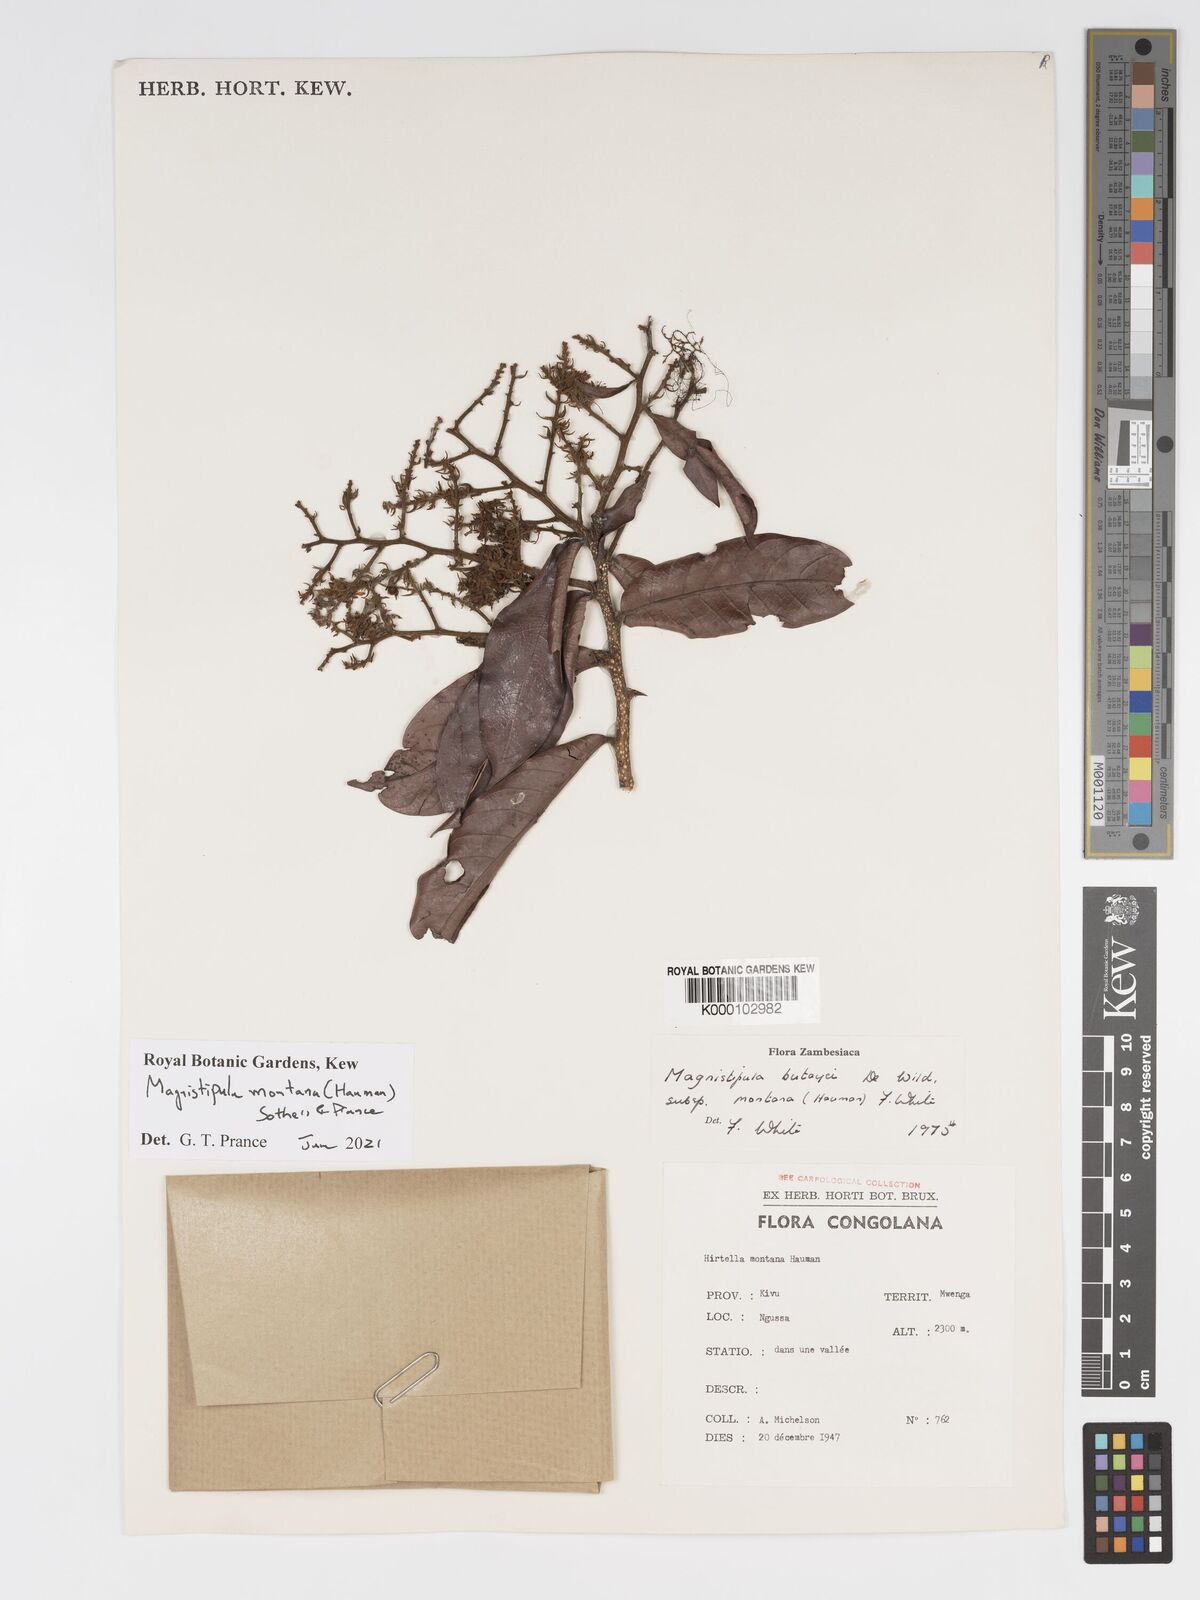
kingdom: Plantae
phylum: Tracheophyta
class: Magnoliopsida
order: Malpighiales
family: Chrysobalanaceae
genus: Magnistipula
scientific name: Magnistipula butayei
